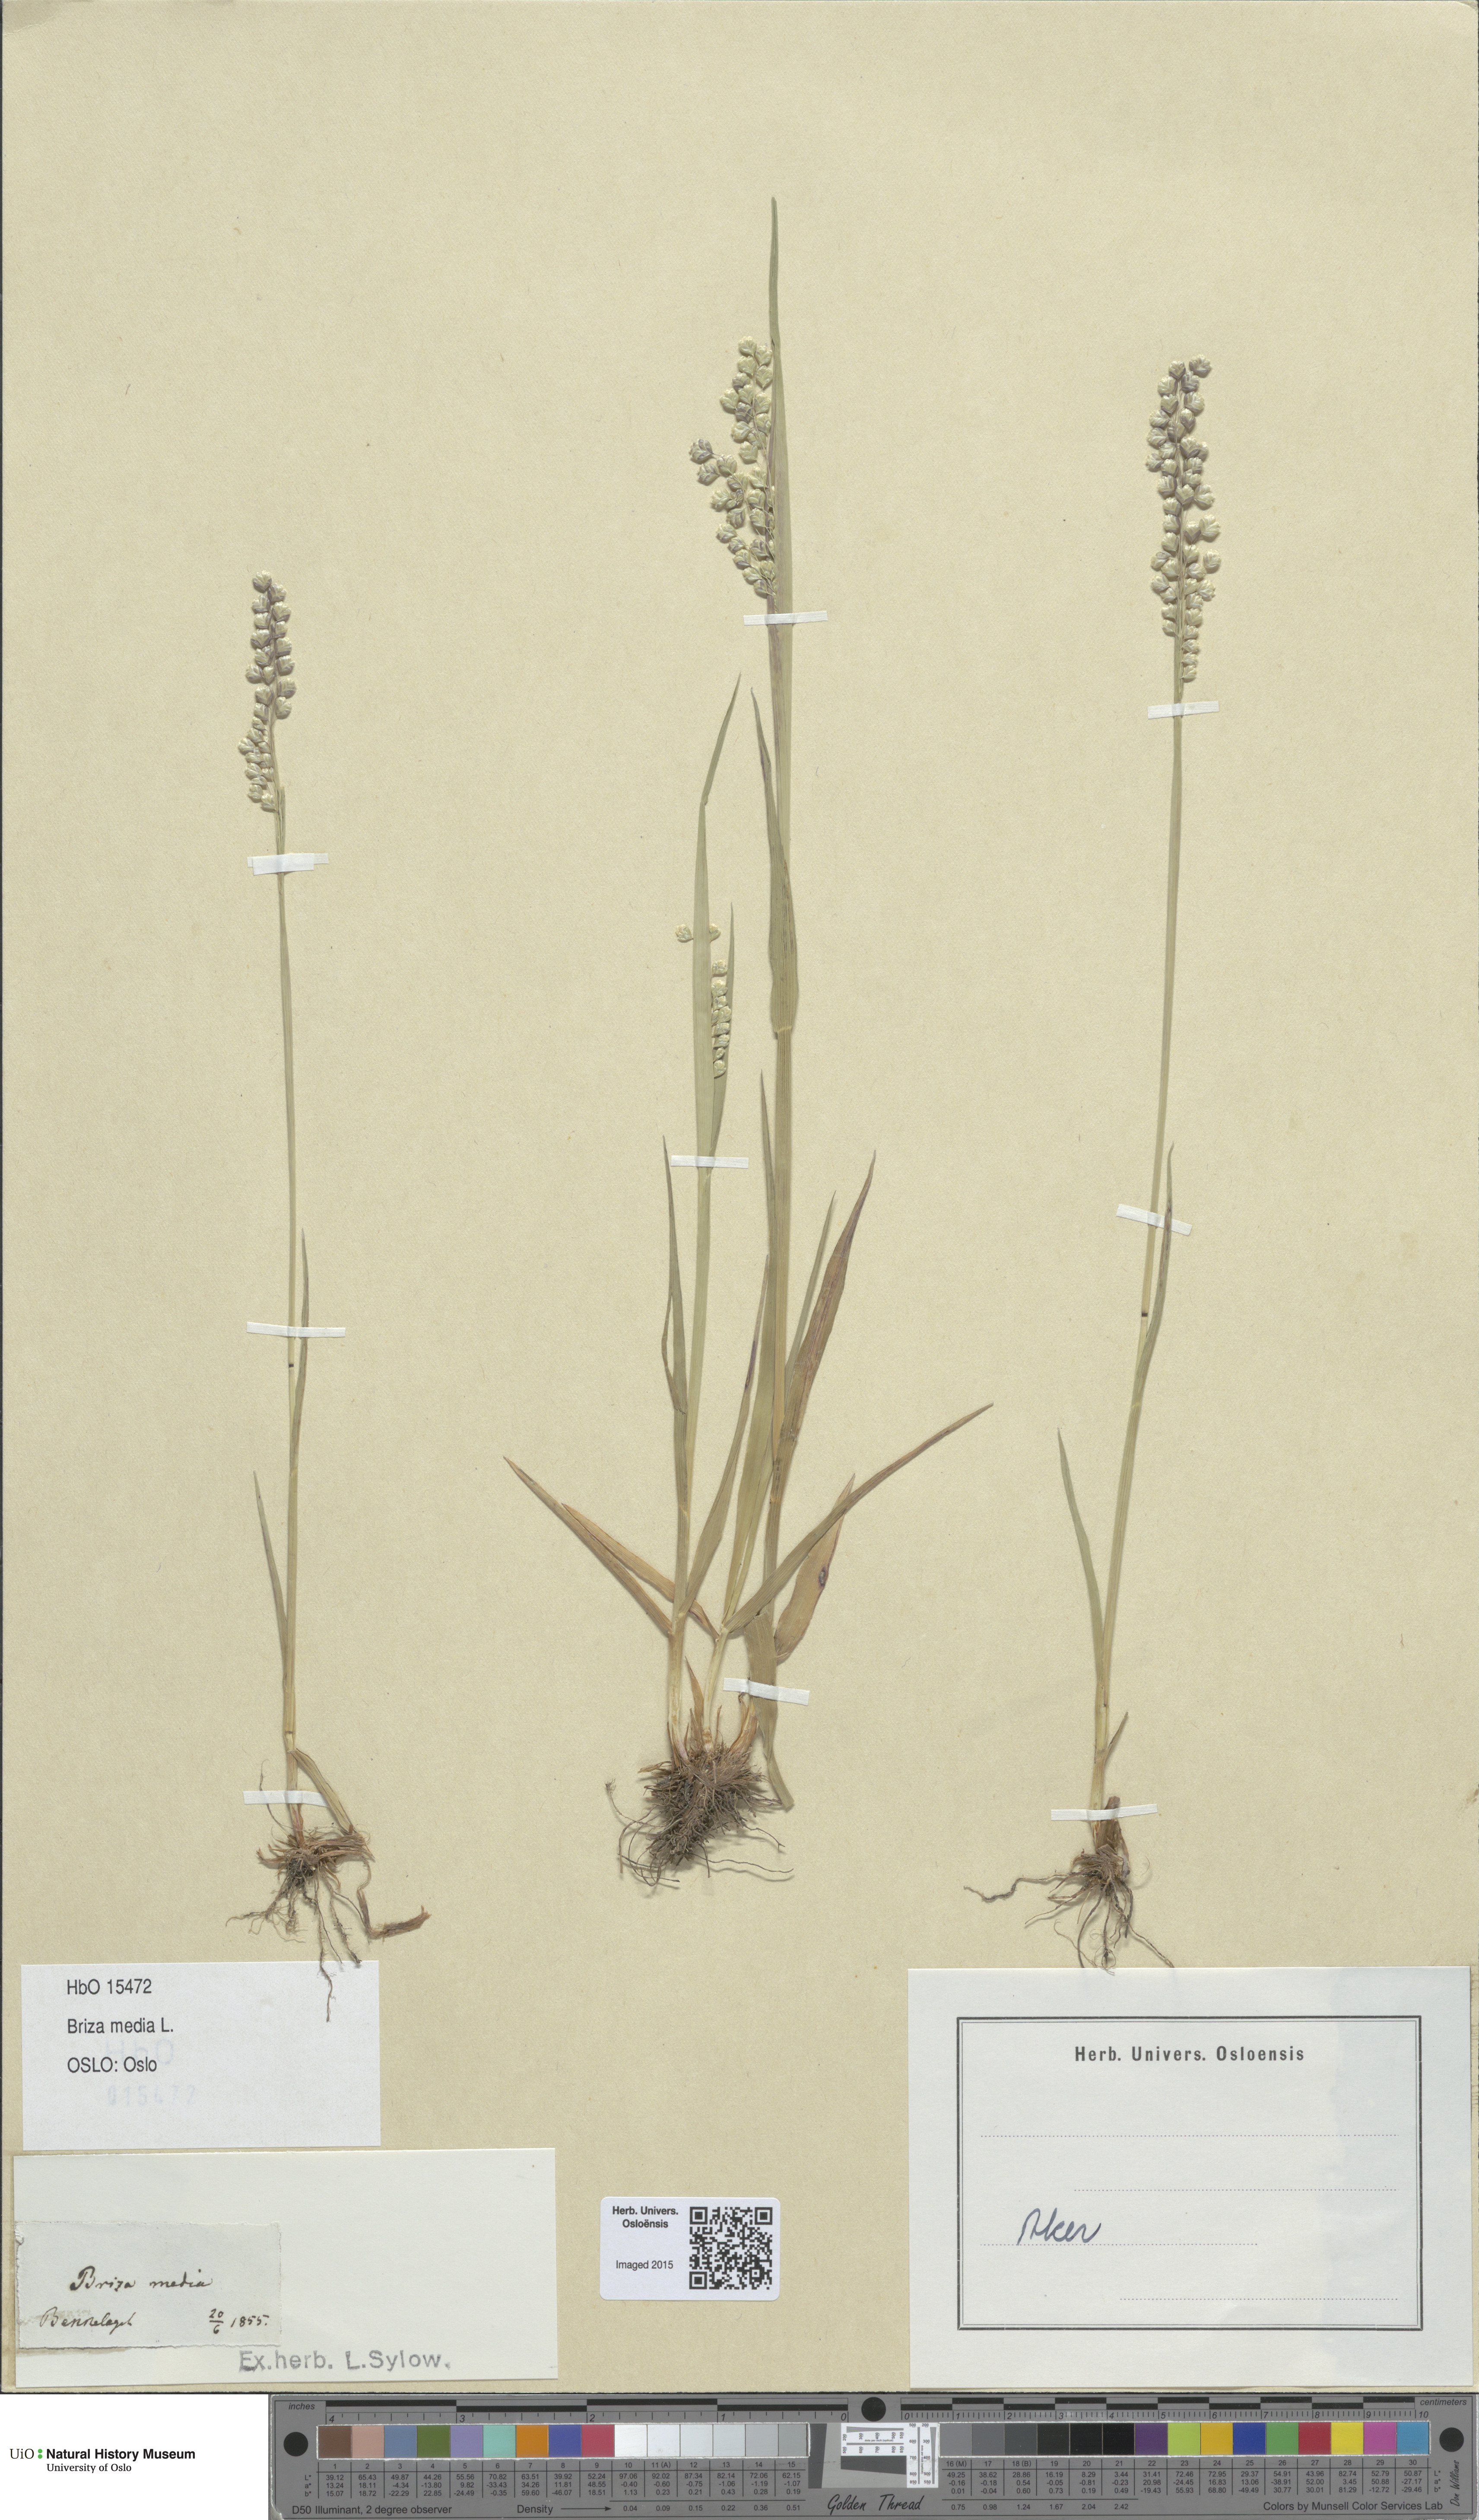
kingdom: Plantae
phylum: Tracheophyta
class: Liliopsida
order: Poales
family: Poaceae
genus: Briza
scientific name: Briza media
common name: Quaking grass
